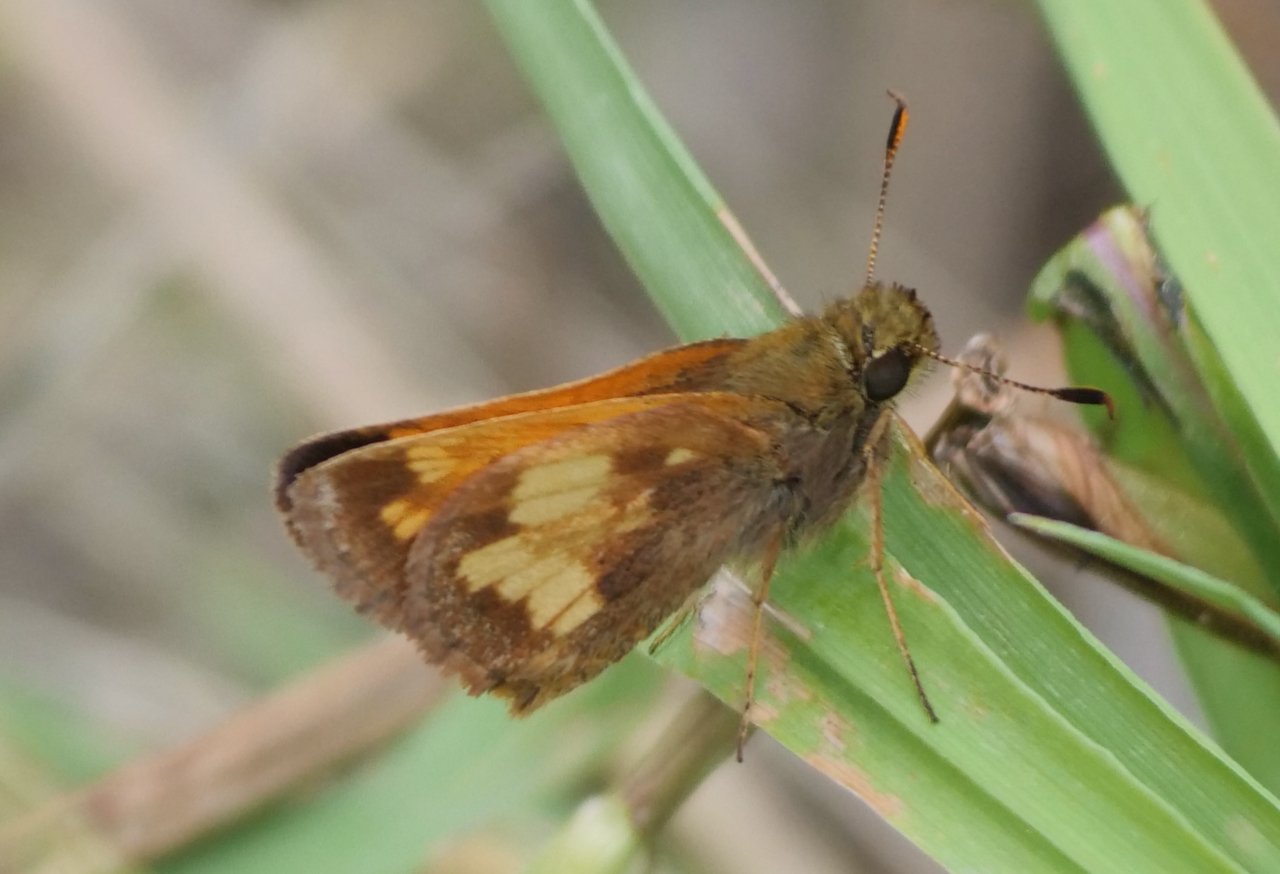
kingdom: Animalia
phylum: Arthropoda
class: Insecta
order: Lepidoptera
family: Hesperiidae
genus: Lon
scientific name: Lon hobomok
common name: Hobomok Skipper
